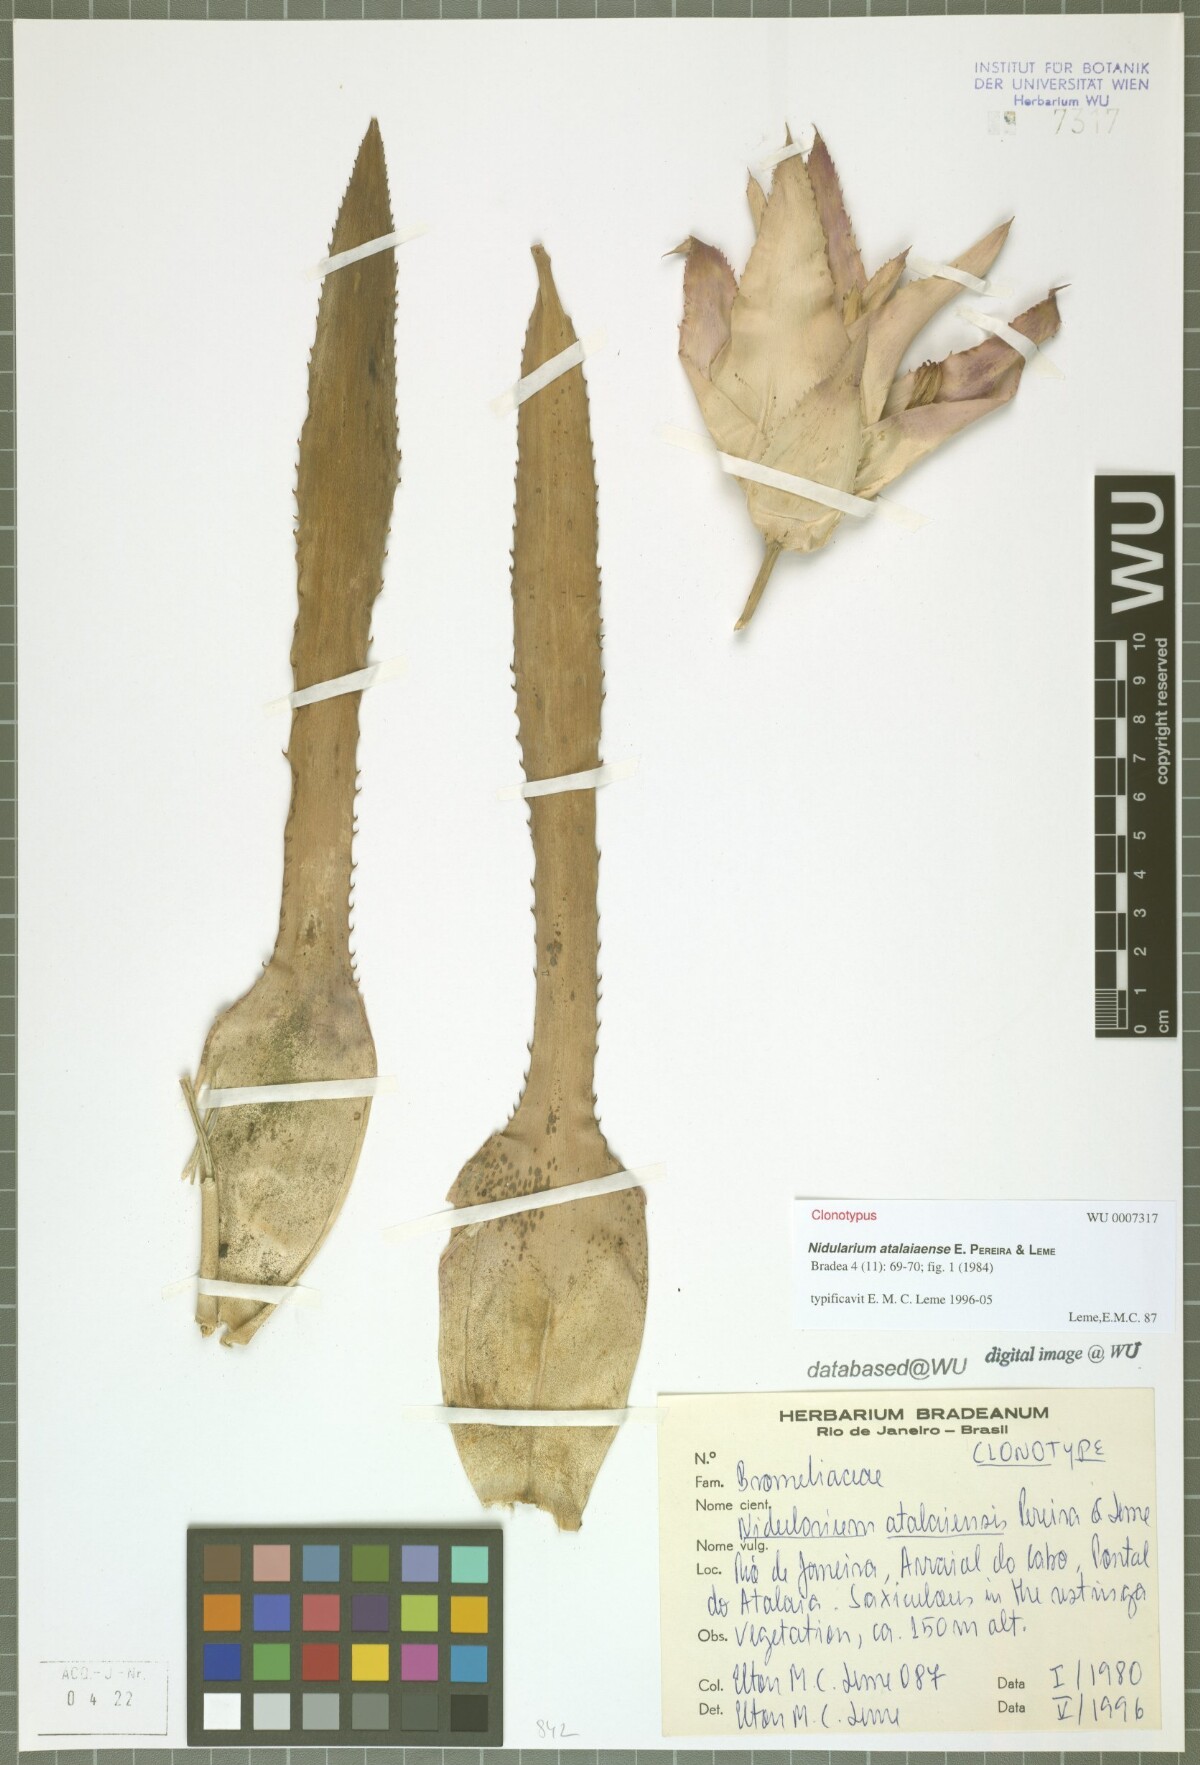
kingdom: Plantae
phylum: Tracheophyta
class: Liliopsida
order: Poales
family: Bromeliaceae
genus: Nidularium
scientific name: Nidularium atalaiaense
